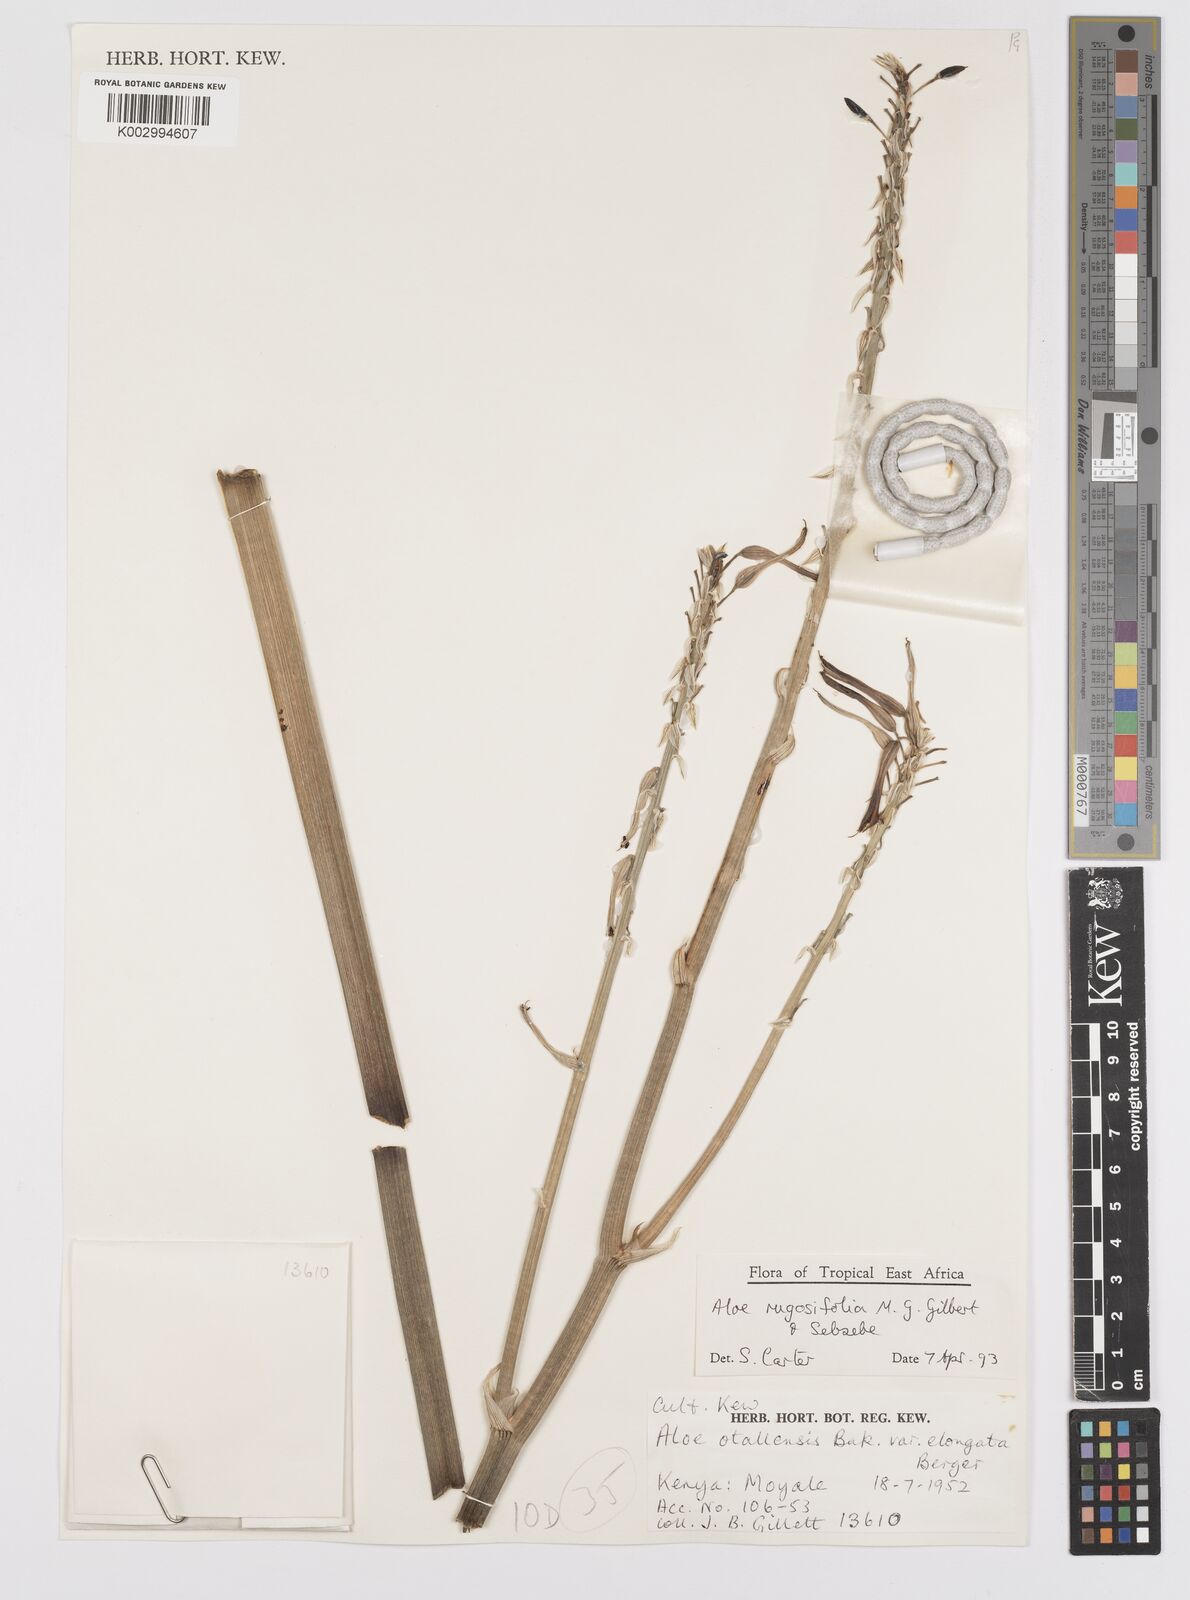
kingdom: Plantae
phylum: Tracheophyta
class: Liliopsida
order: Asparagales
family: Asphodelaceae
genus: Aloe
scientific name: Aloe rugosifolia
